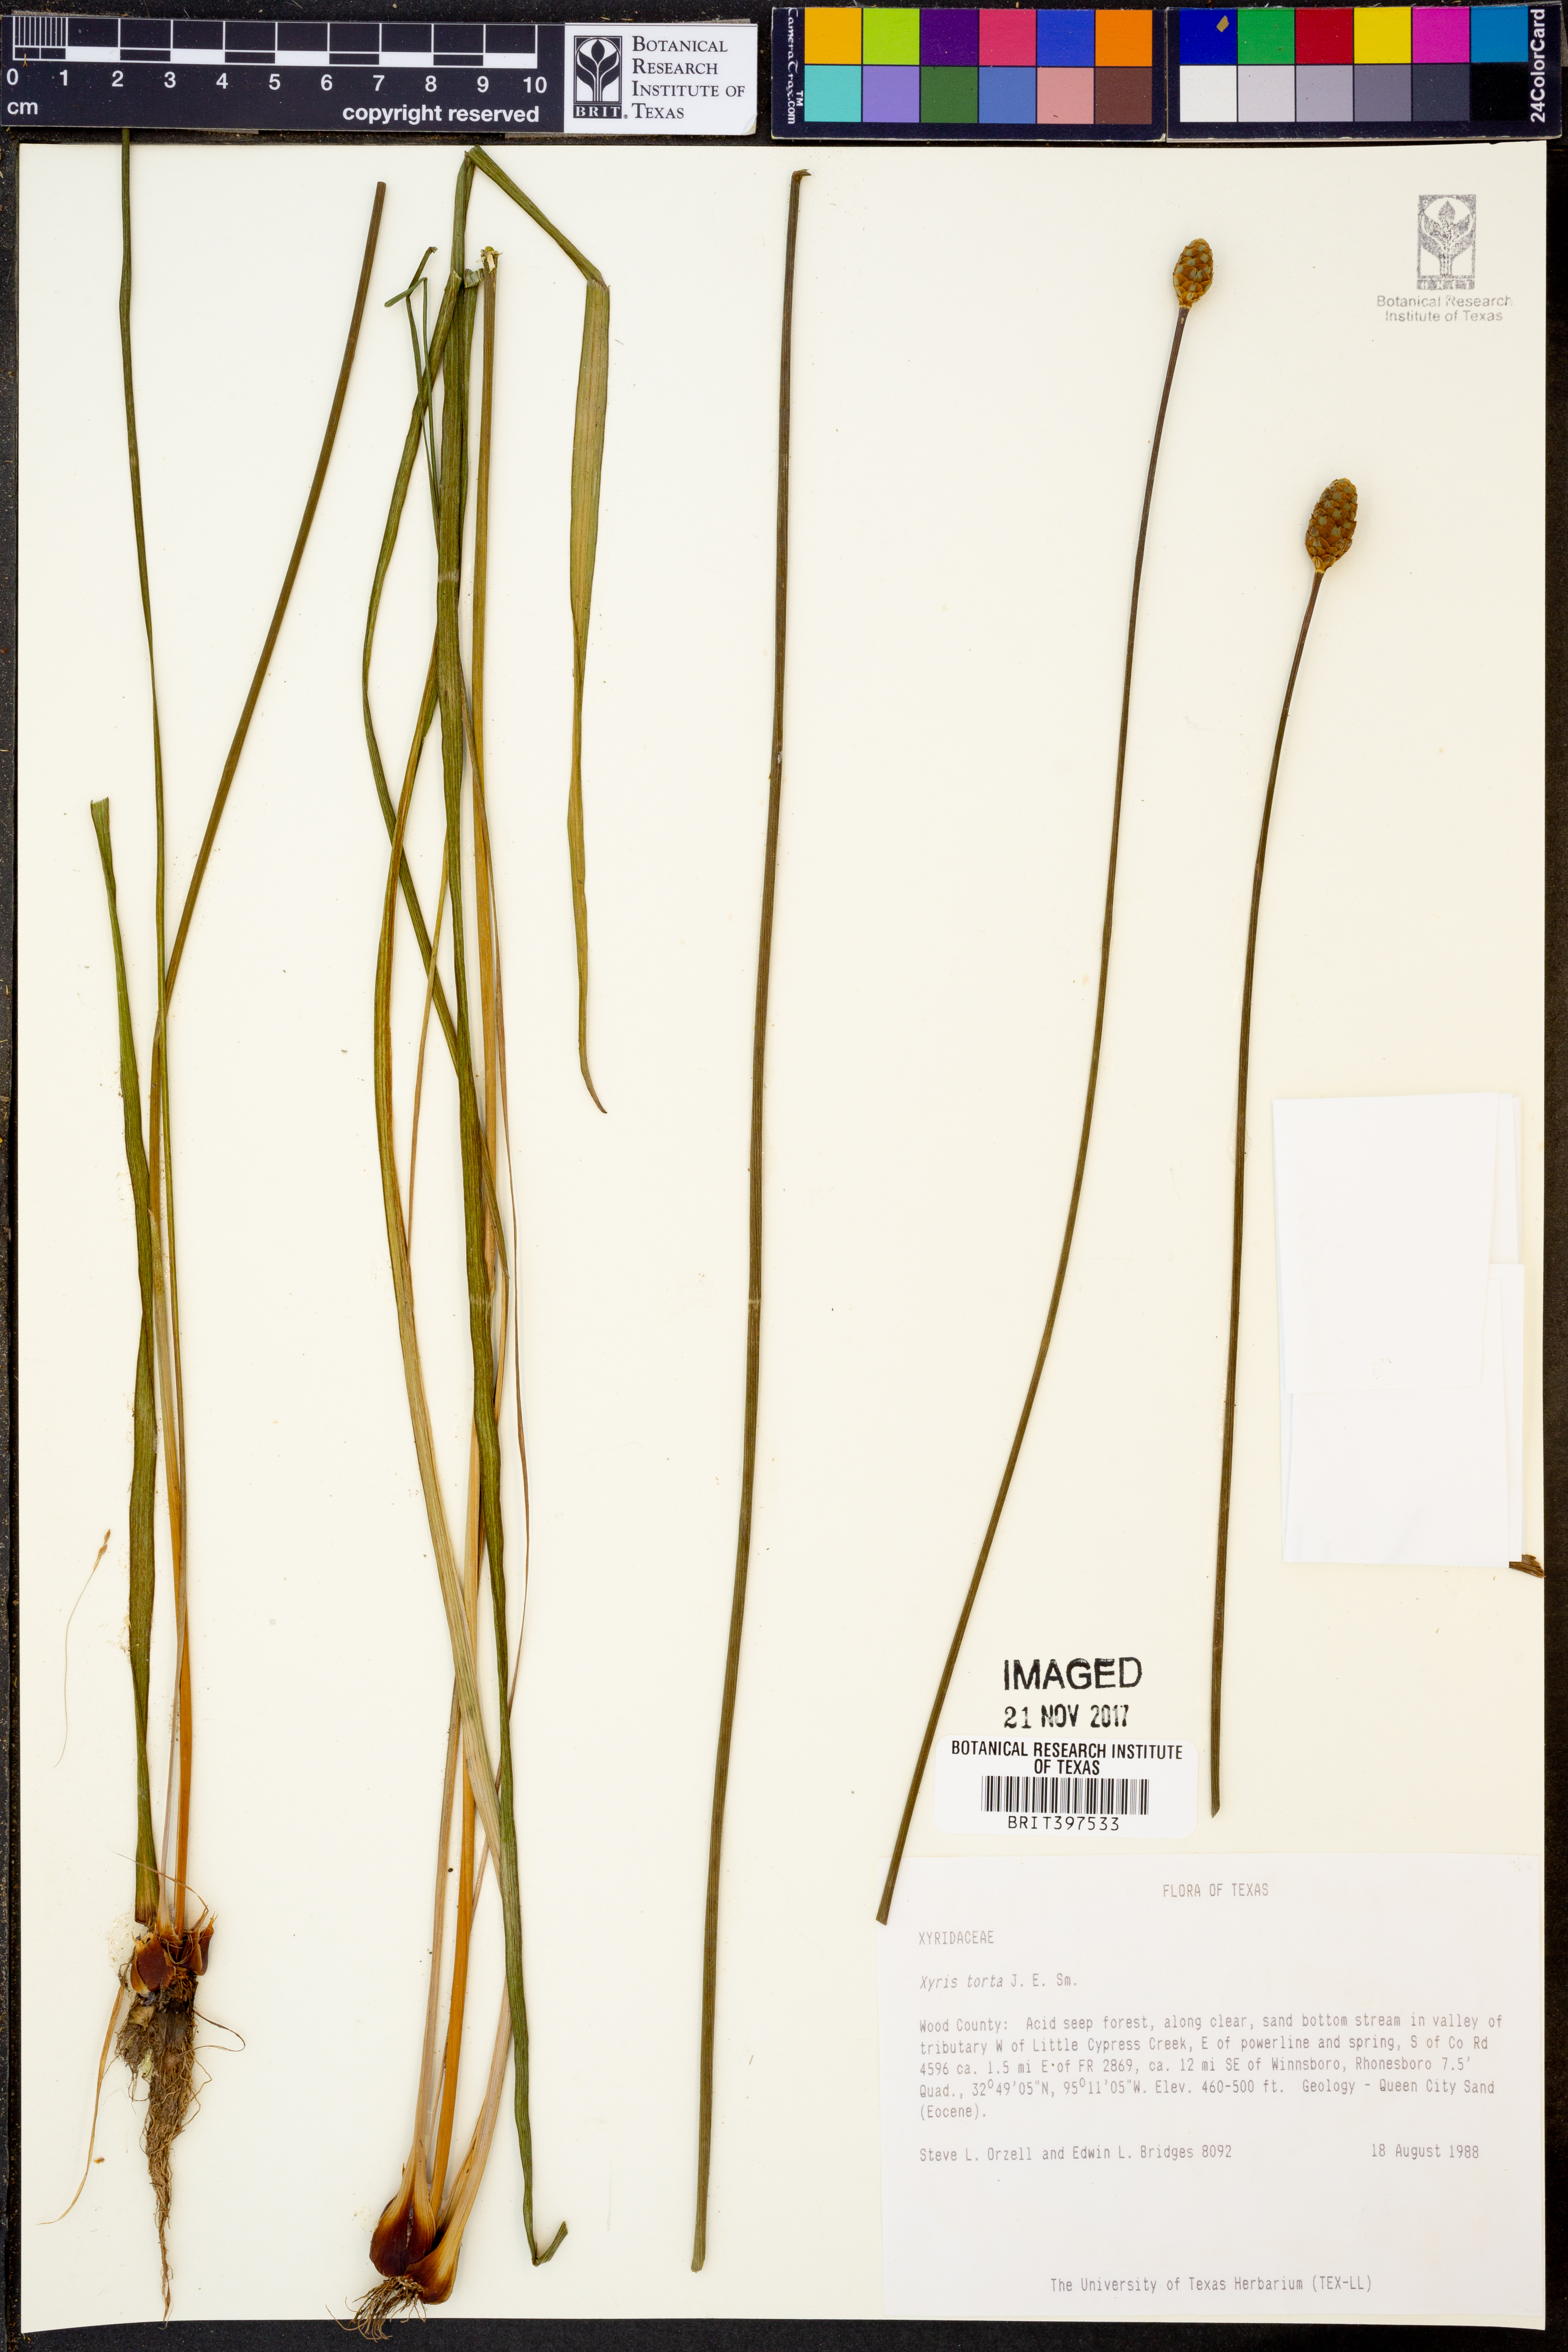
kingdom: Plantae
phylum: Tracheophyta
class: Liliopsida
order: Poales
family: Xyridaceae
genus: Xyris
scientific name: Xyris torta
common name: Common yelloweyed grass
